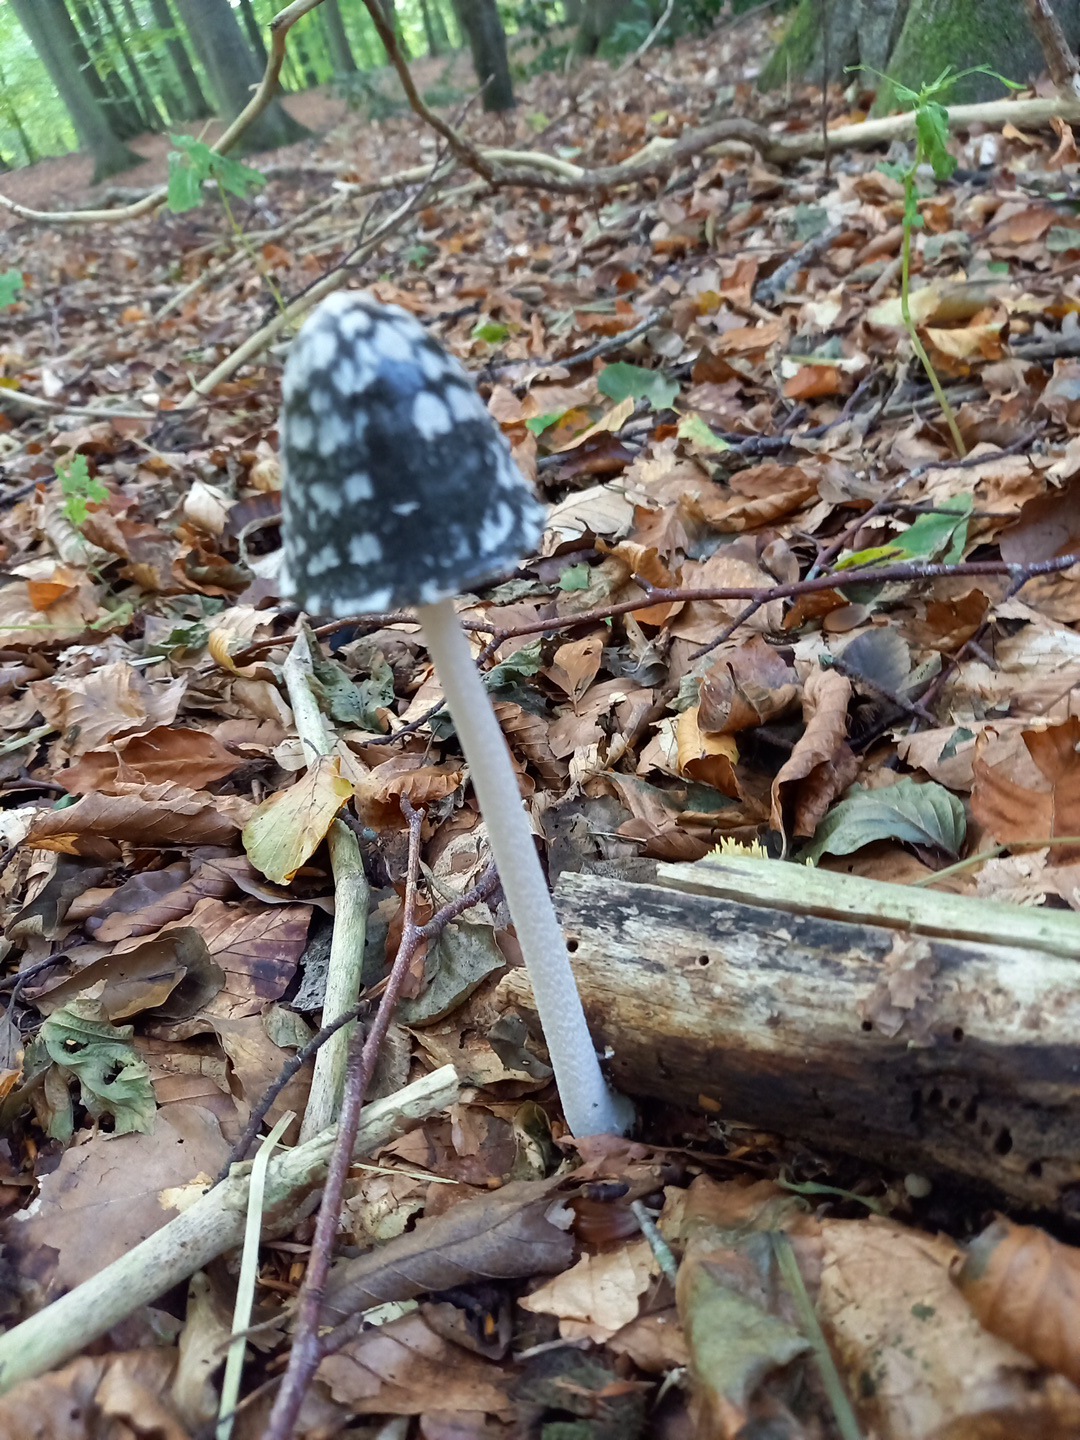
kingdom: Fungi
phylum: Basidiomycota
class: Agaricomycetes
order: Agaricales
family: Psathyrellaceae
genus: Coprinopsis
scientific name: Coprinopsis picacea
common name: skade-blækhat
